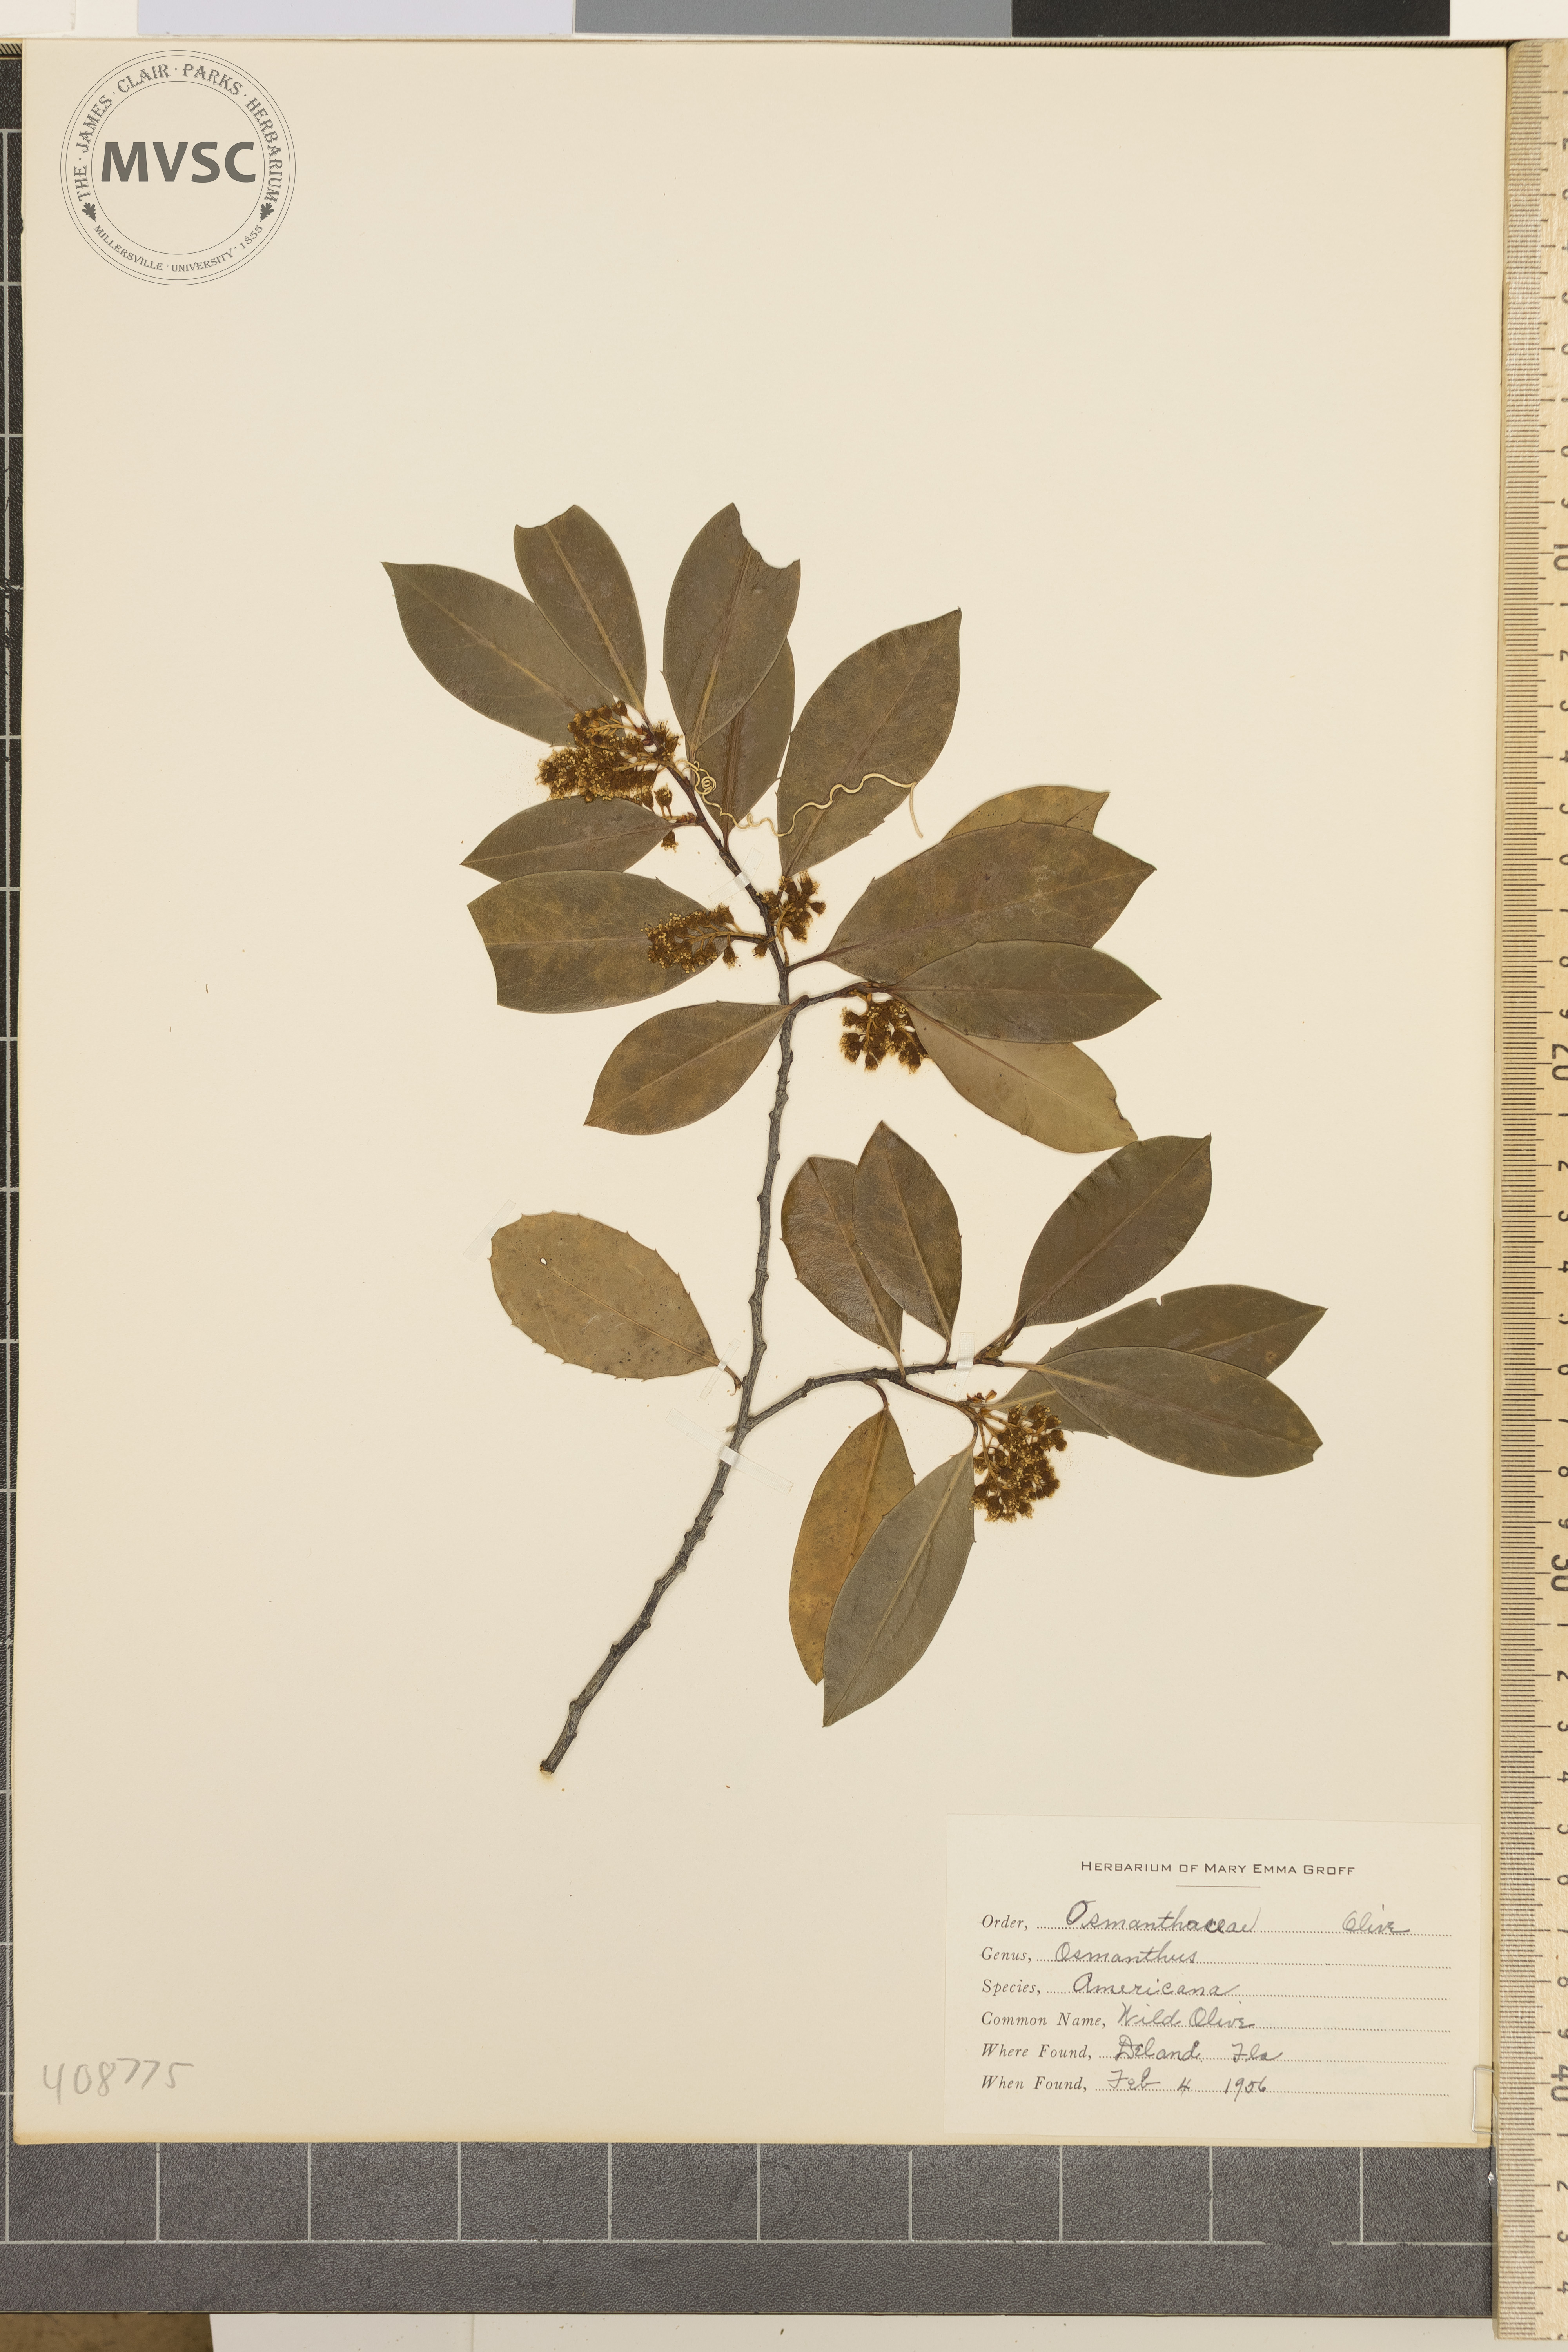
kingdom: Plantae
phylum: Tracheophyta
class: Magnoliopsida
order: Lamiales
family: Oleaceae
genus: Osmanthus
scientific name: Osmanthus americanus
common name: Wild Olive
